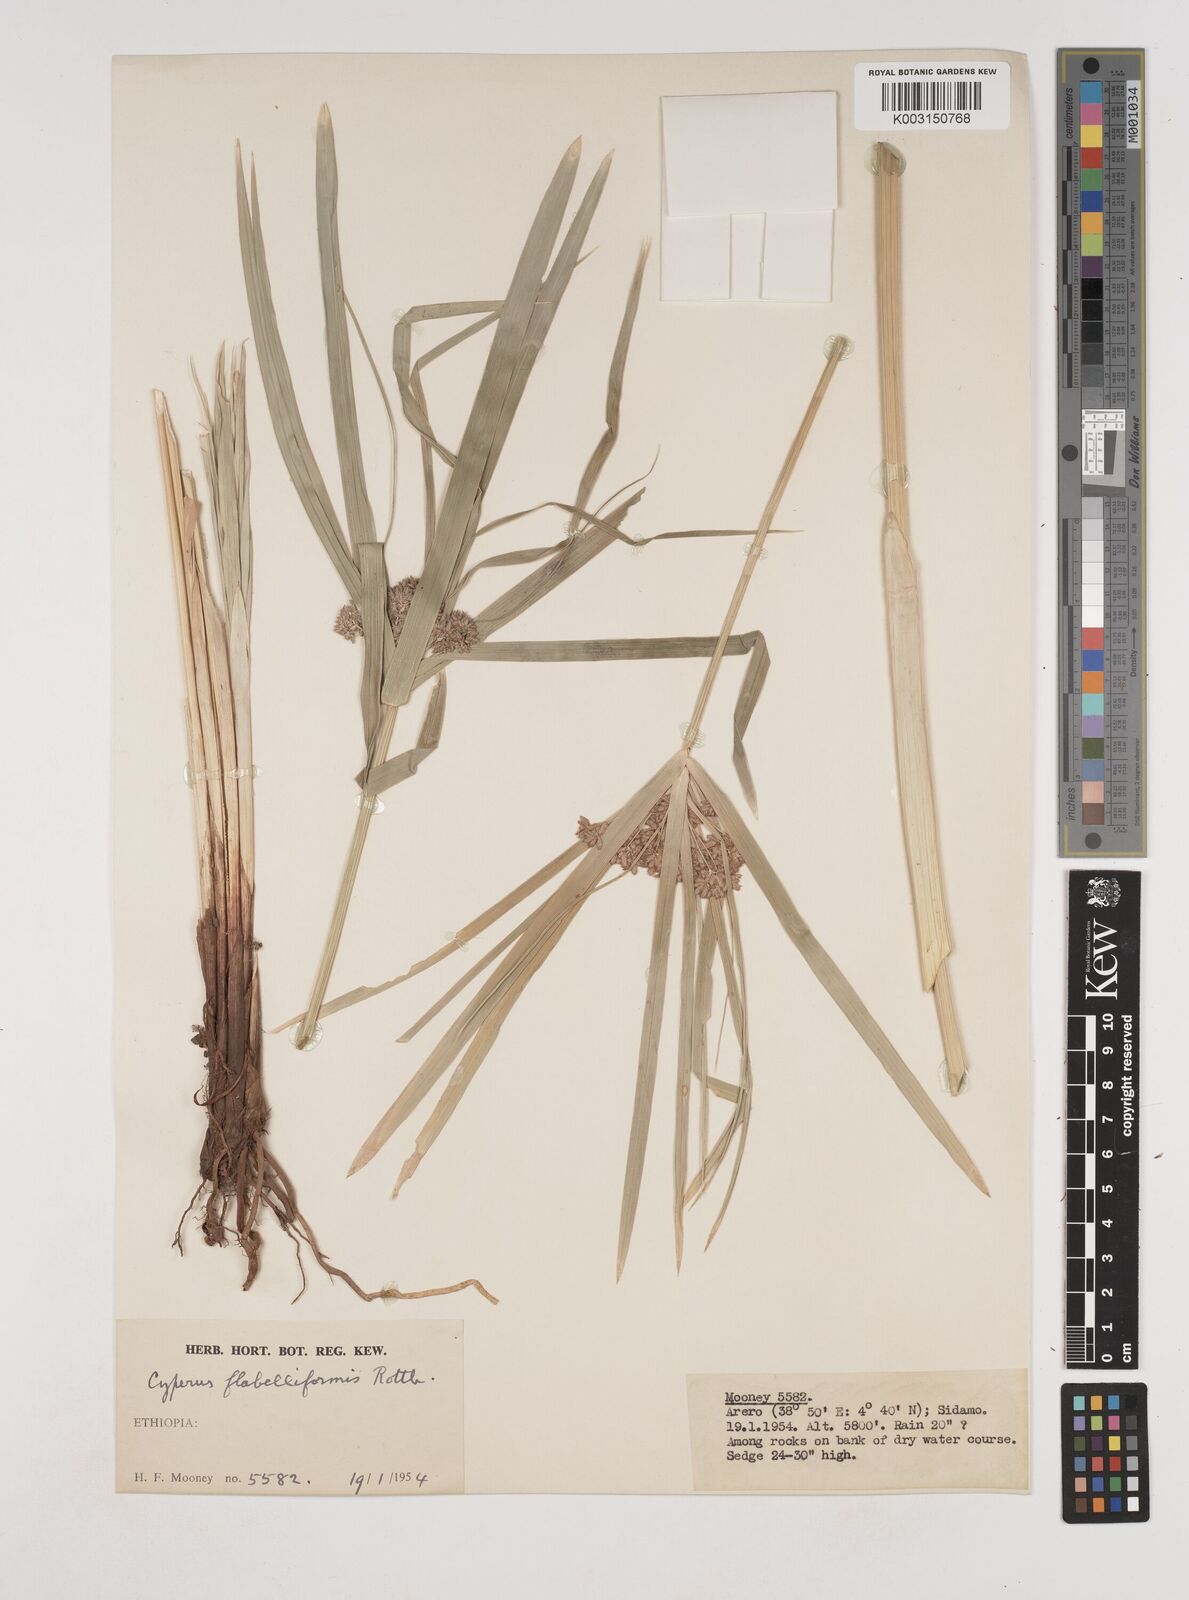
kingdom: Plantae
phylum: Tracheophyta
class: Liliopsida
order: Poales
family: Cyperaceae
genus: Cyperus
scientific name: Cyperus alternifolius
